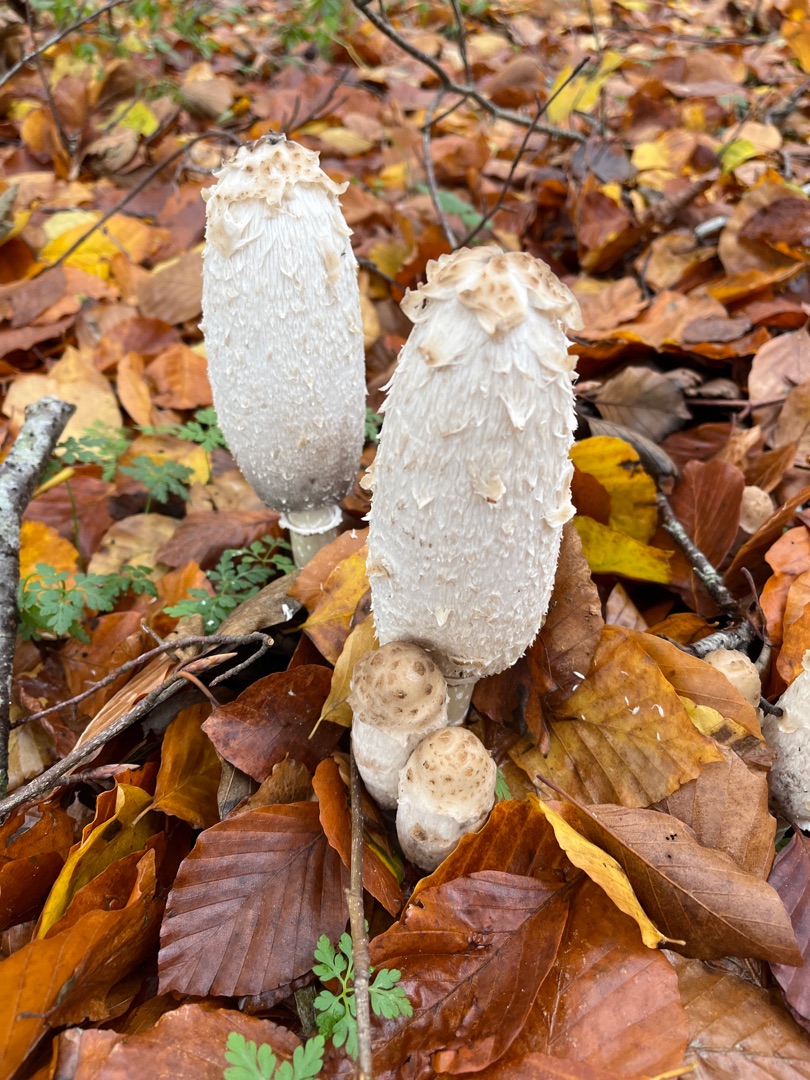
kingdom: Fungi
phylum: Basidiomycota
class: Agaricomycetes
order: Agaricales
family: Agaricaceae
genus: Coprinus
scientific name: Coprinus comatus
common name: Stor parykhat
